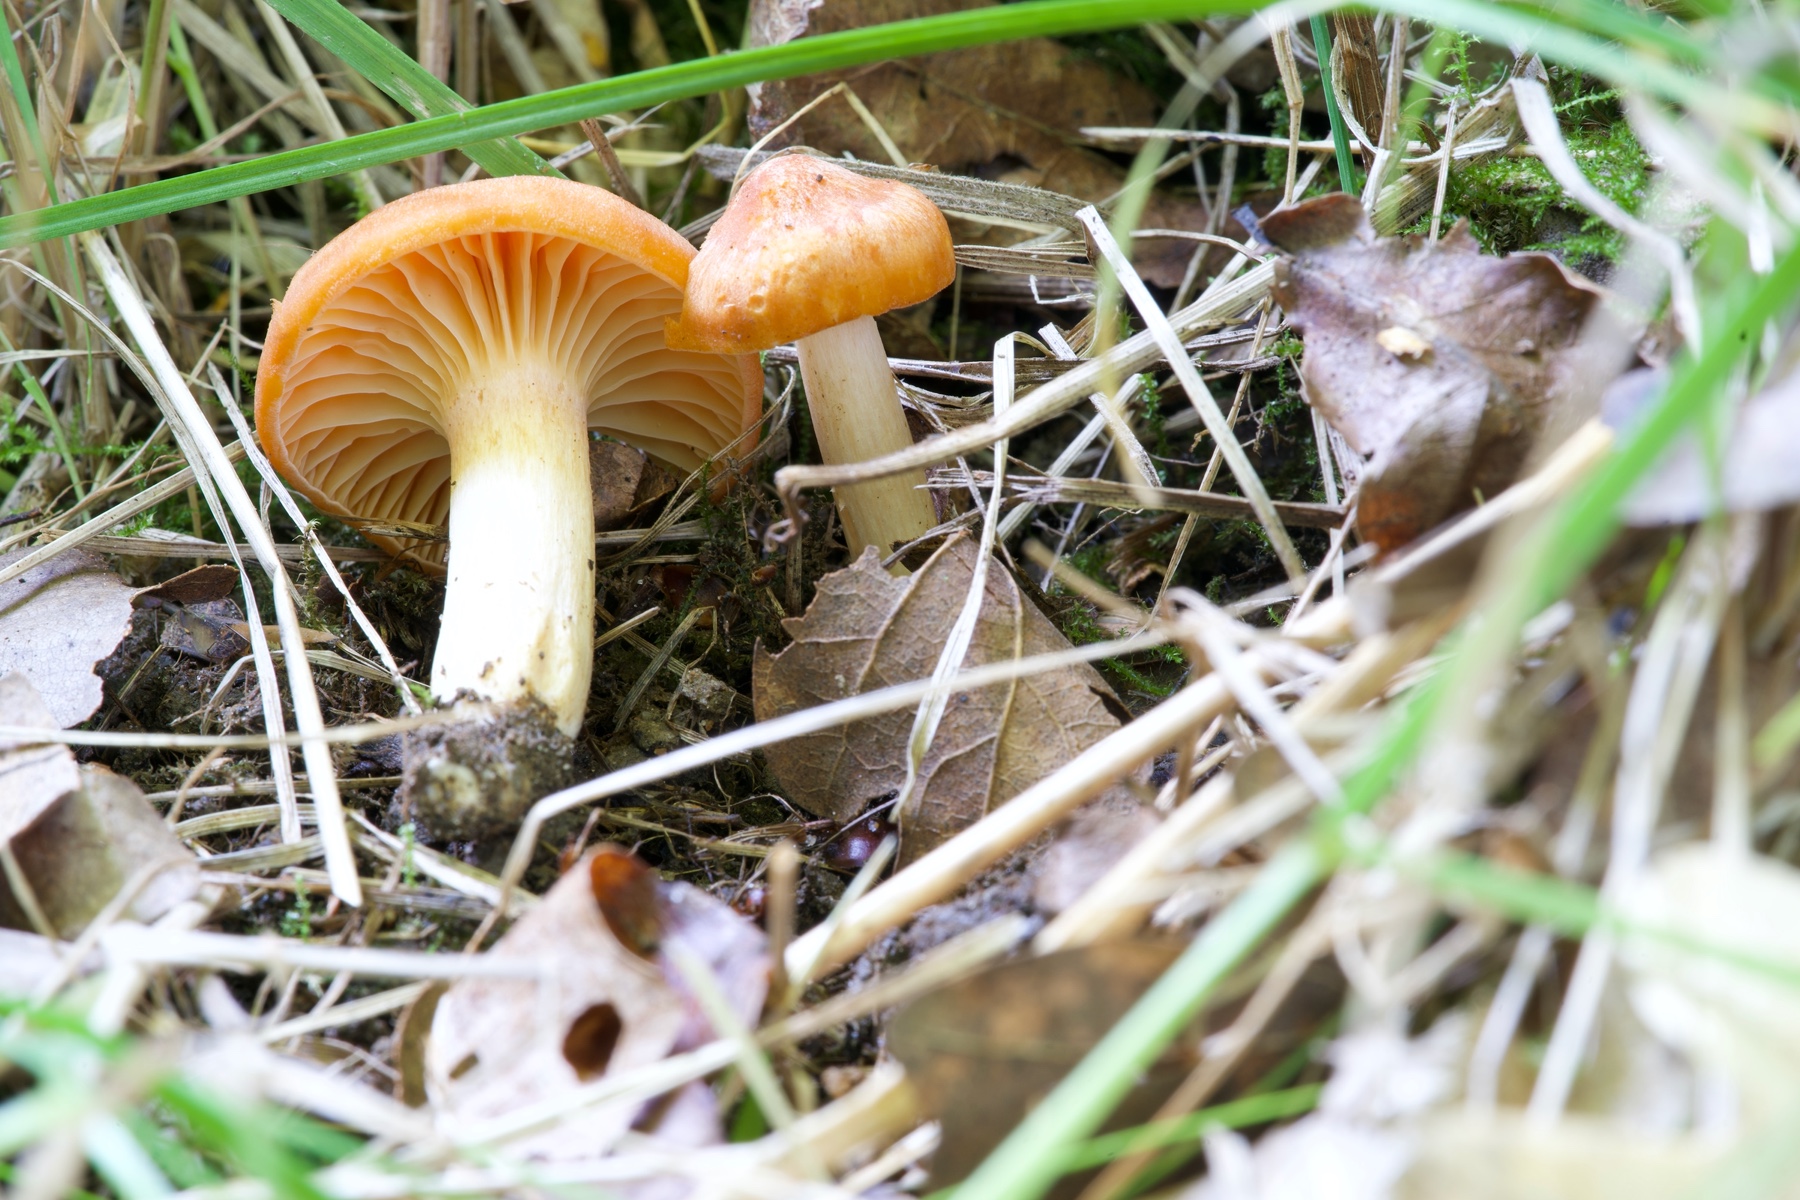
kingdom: Fungi
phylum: Basidiomycota
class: Agaricomycetes
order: Agaricales
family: Hygrophoraceae
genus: Cuphophyllus
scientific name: Cuphophyllus pratensis
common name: eng-vokshat
